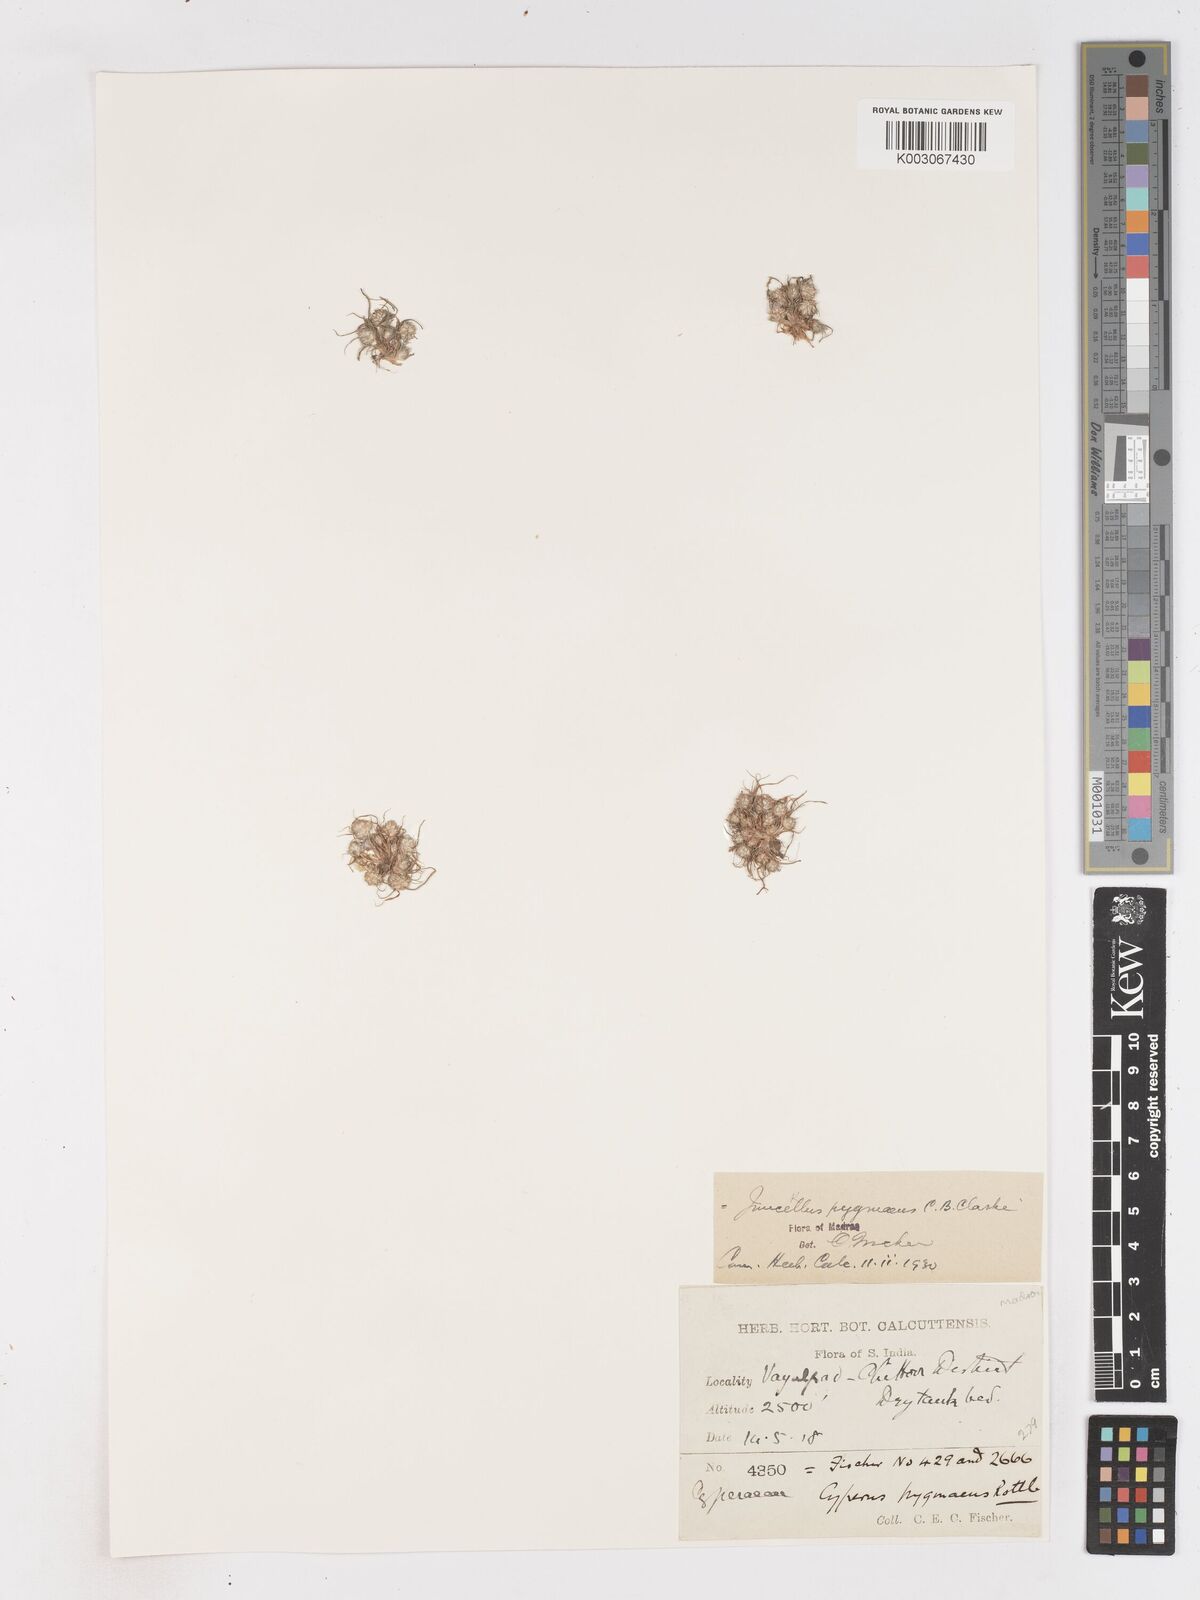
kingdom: Plantae
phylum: Tracheophyta
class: Liliopsida
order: Poales
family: Cyperaceae
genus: Cyperus
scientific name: Cyperus michelianus
